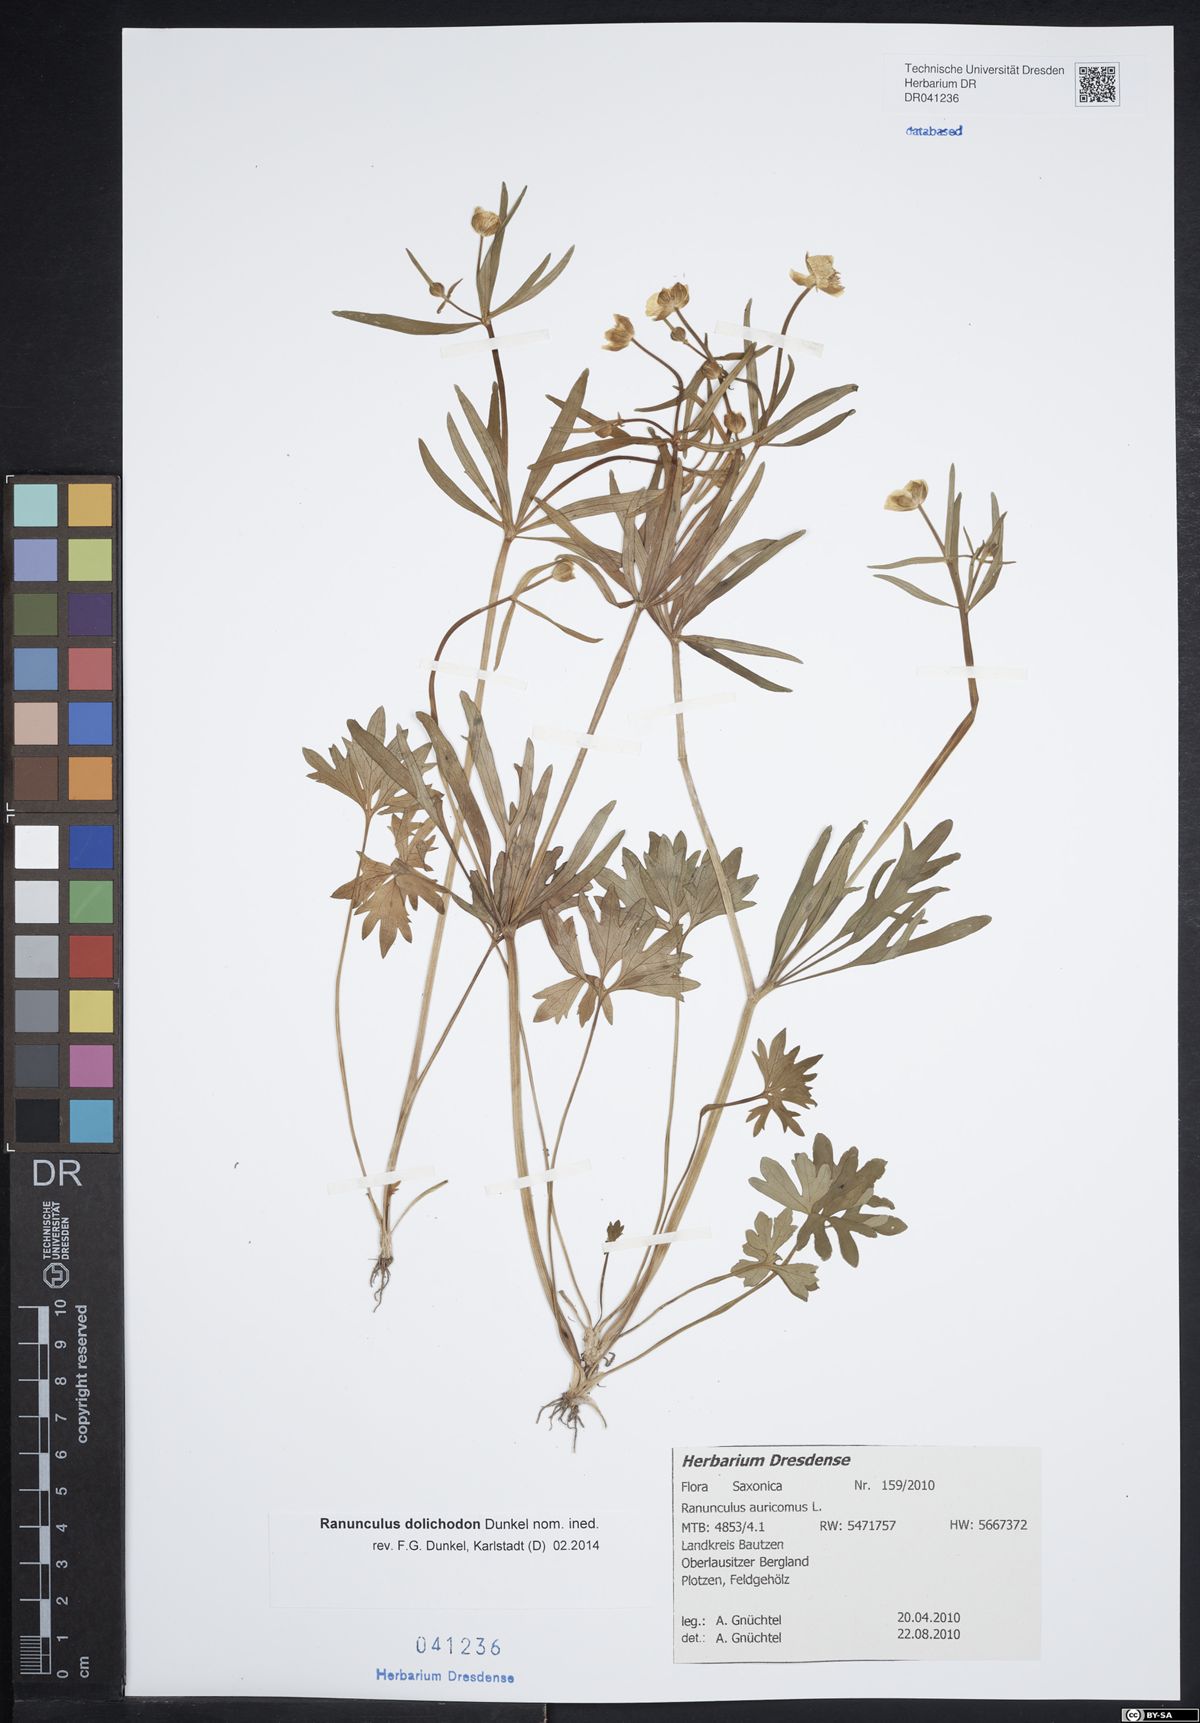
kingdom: Plantae
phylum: Tracheophyta
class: Magnoliopsida
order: Ranunculales
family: Ranunculaceae
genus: Ranunculus
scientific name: Ranunculus auricomus
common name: Goldilocks buttercup
